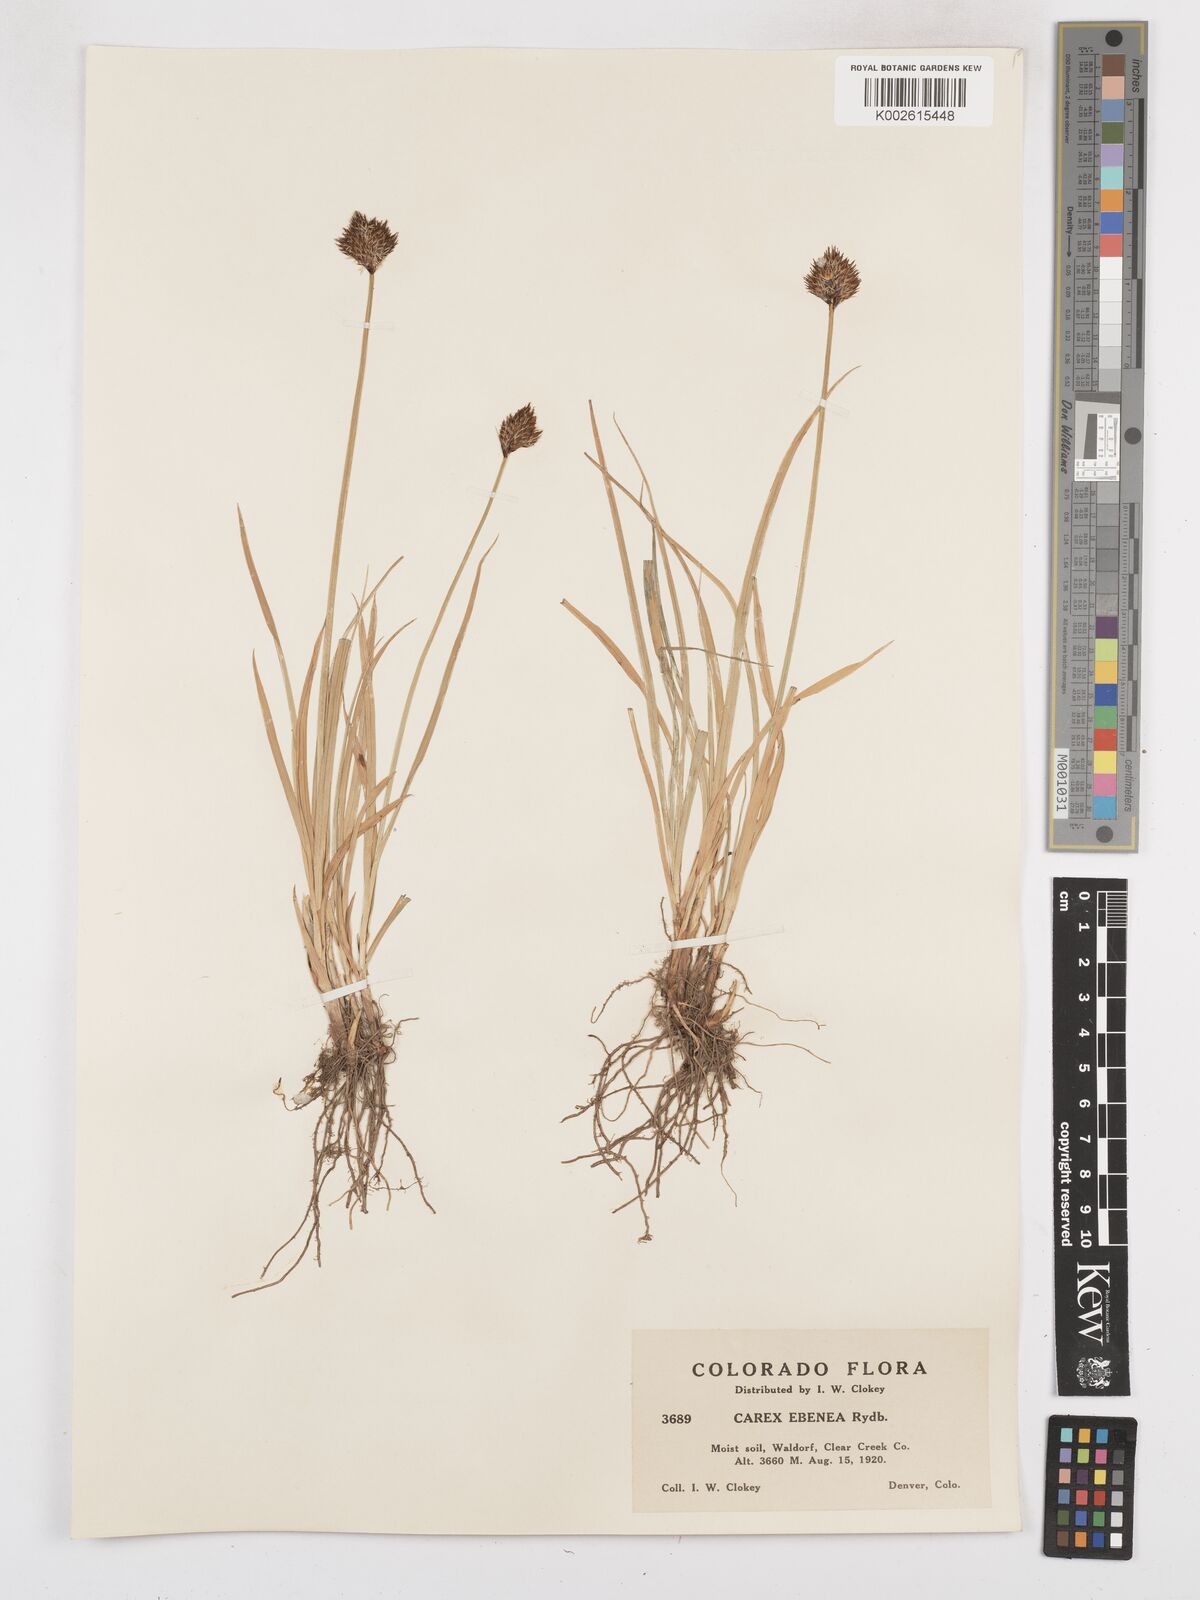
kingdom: Plantae
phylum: Tracheophyta
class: Liliopsida
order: Poales
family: Cyperaceae
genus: Carex
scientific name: Carex eburnea
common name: Bristle-leaved sedge
